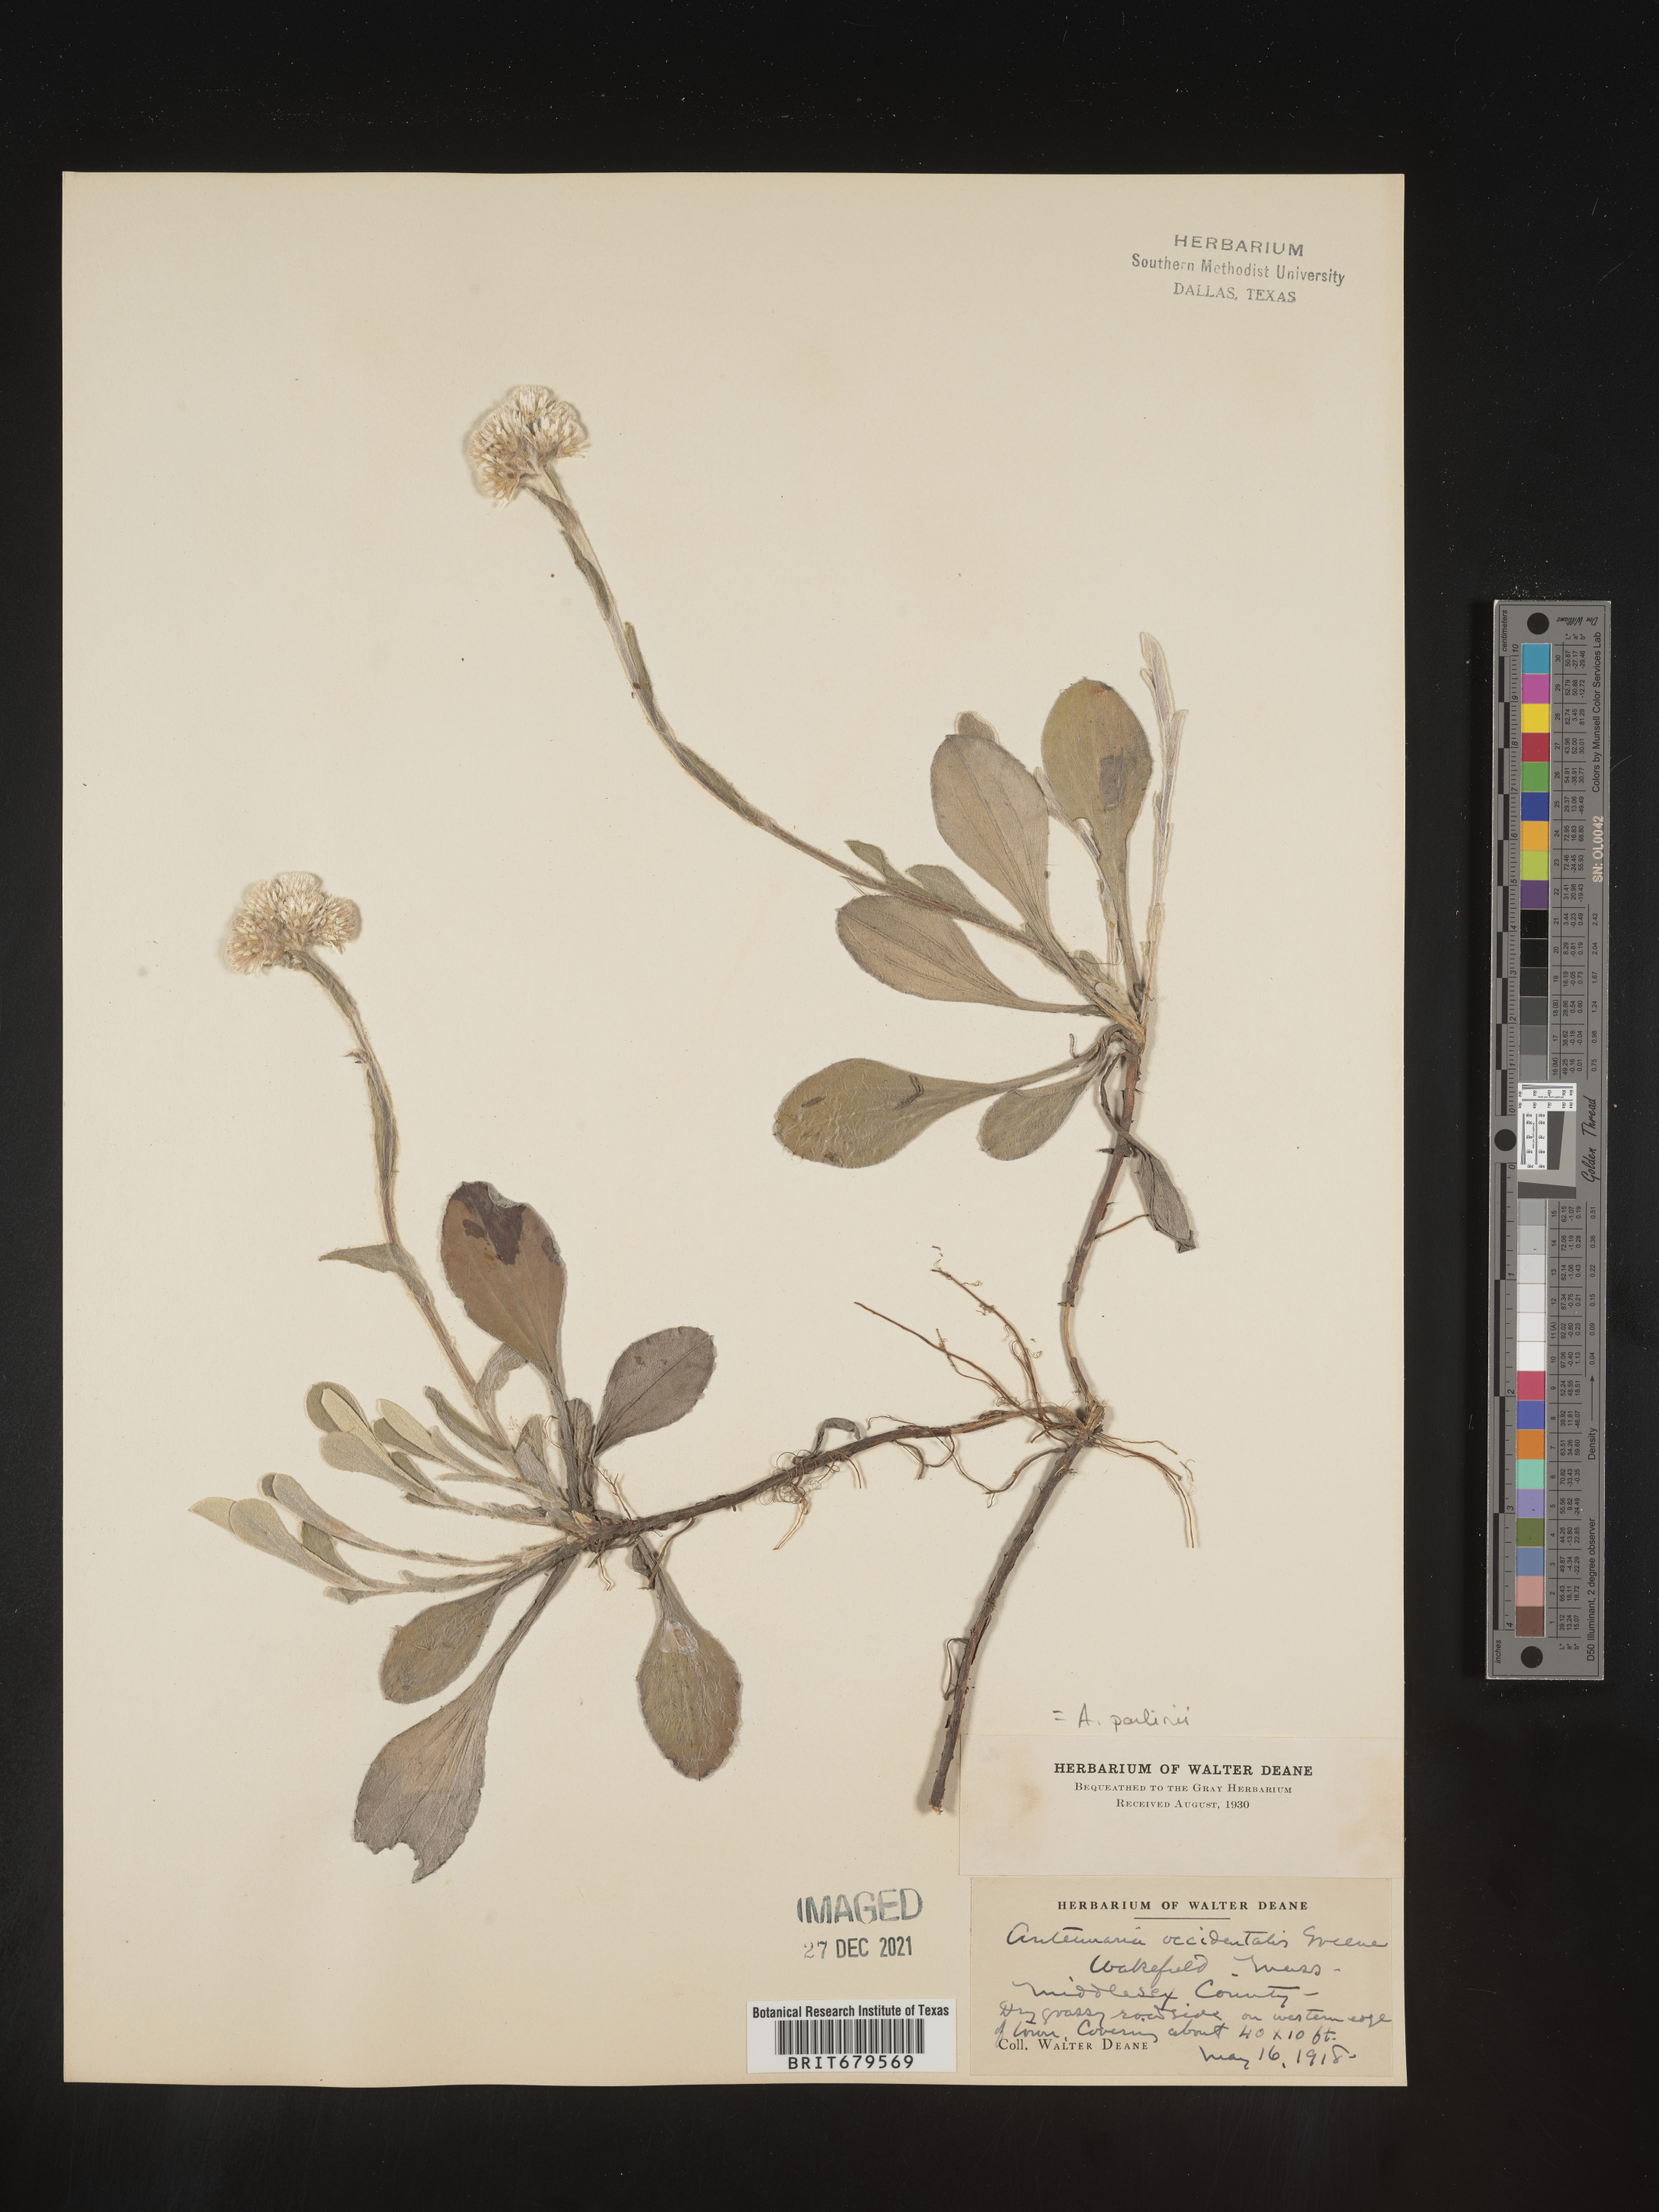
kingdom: Plantae
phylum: Tracheophyta
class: Magnoliopsida
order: Asterales
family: Asteraceae
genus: Antennaria
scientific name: Antennaria parlinii
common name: Parlin's pussytoes
